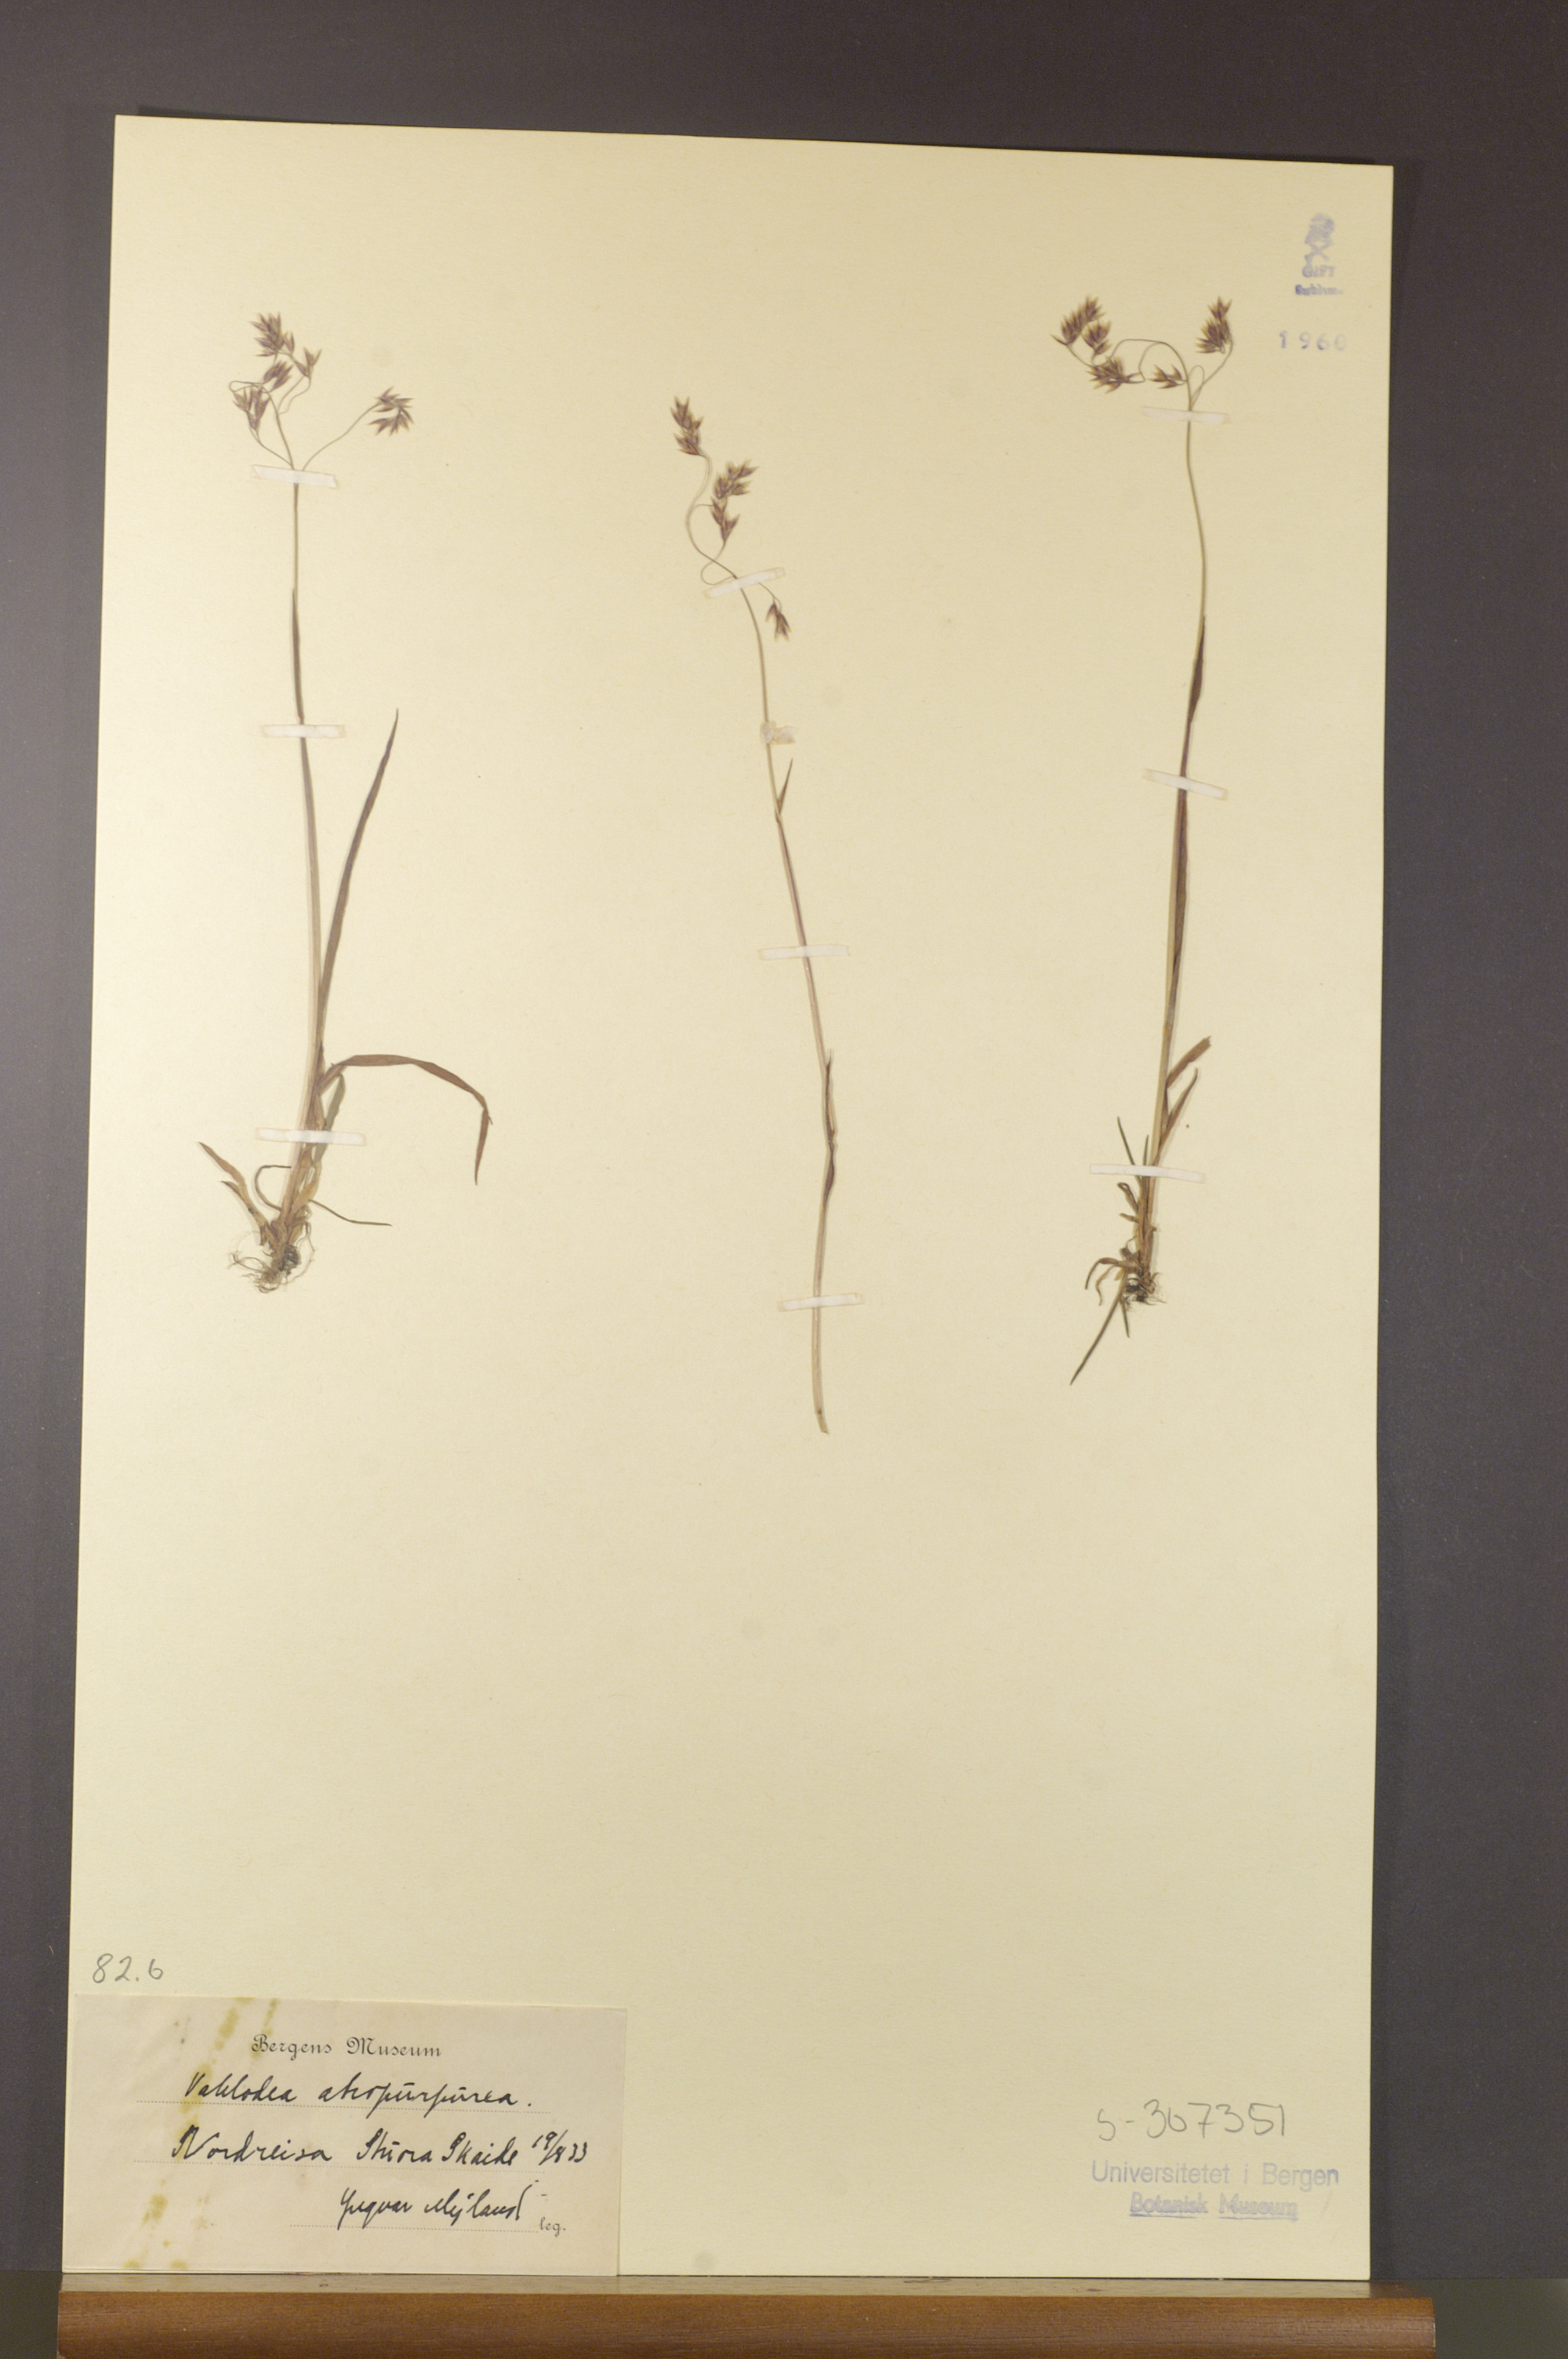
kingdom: Plantae
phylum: Tracheophyta
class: Liliopsida
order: Poales
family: Poaceae
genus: Vahlodea
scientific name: Vahlodea atropurpurea
